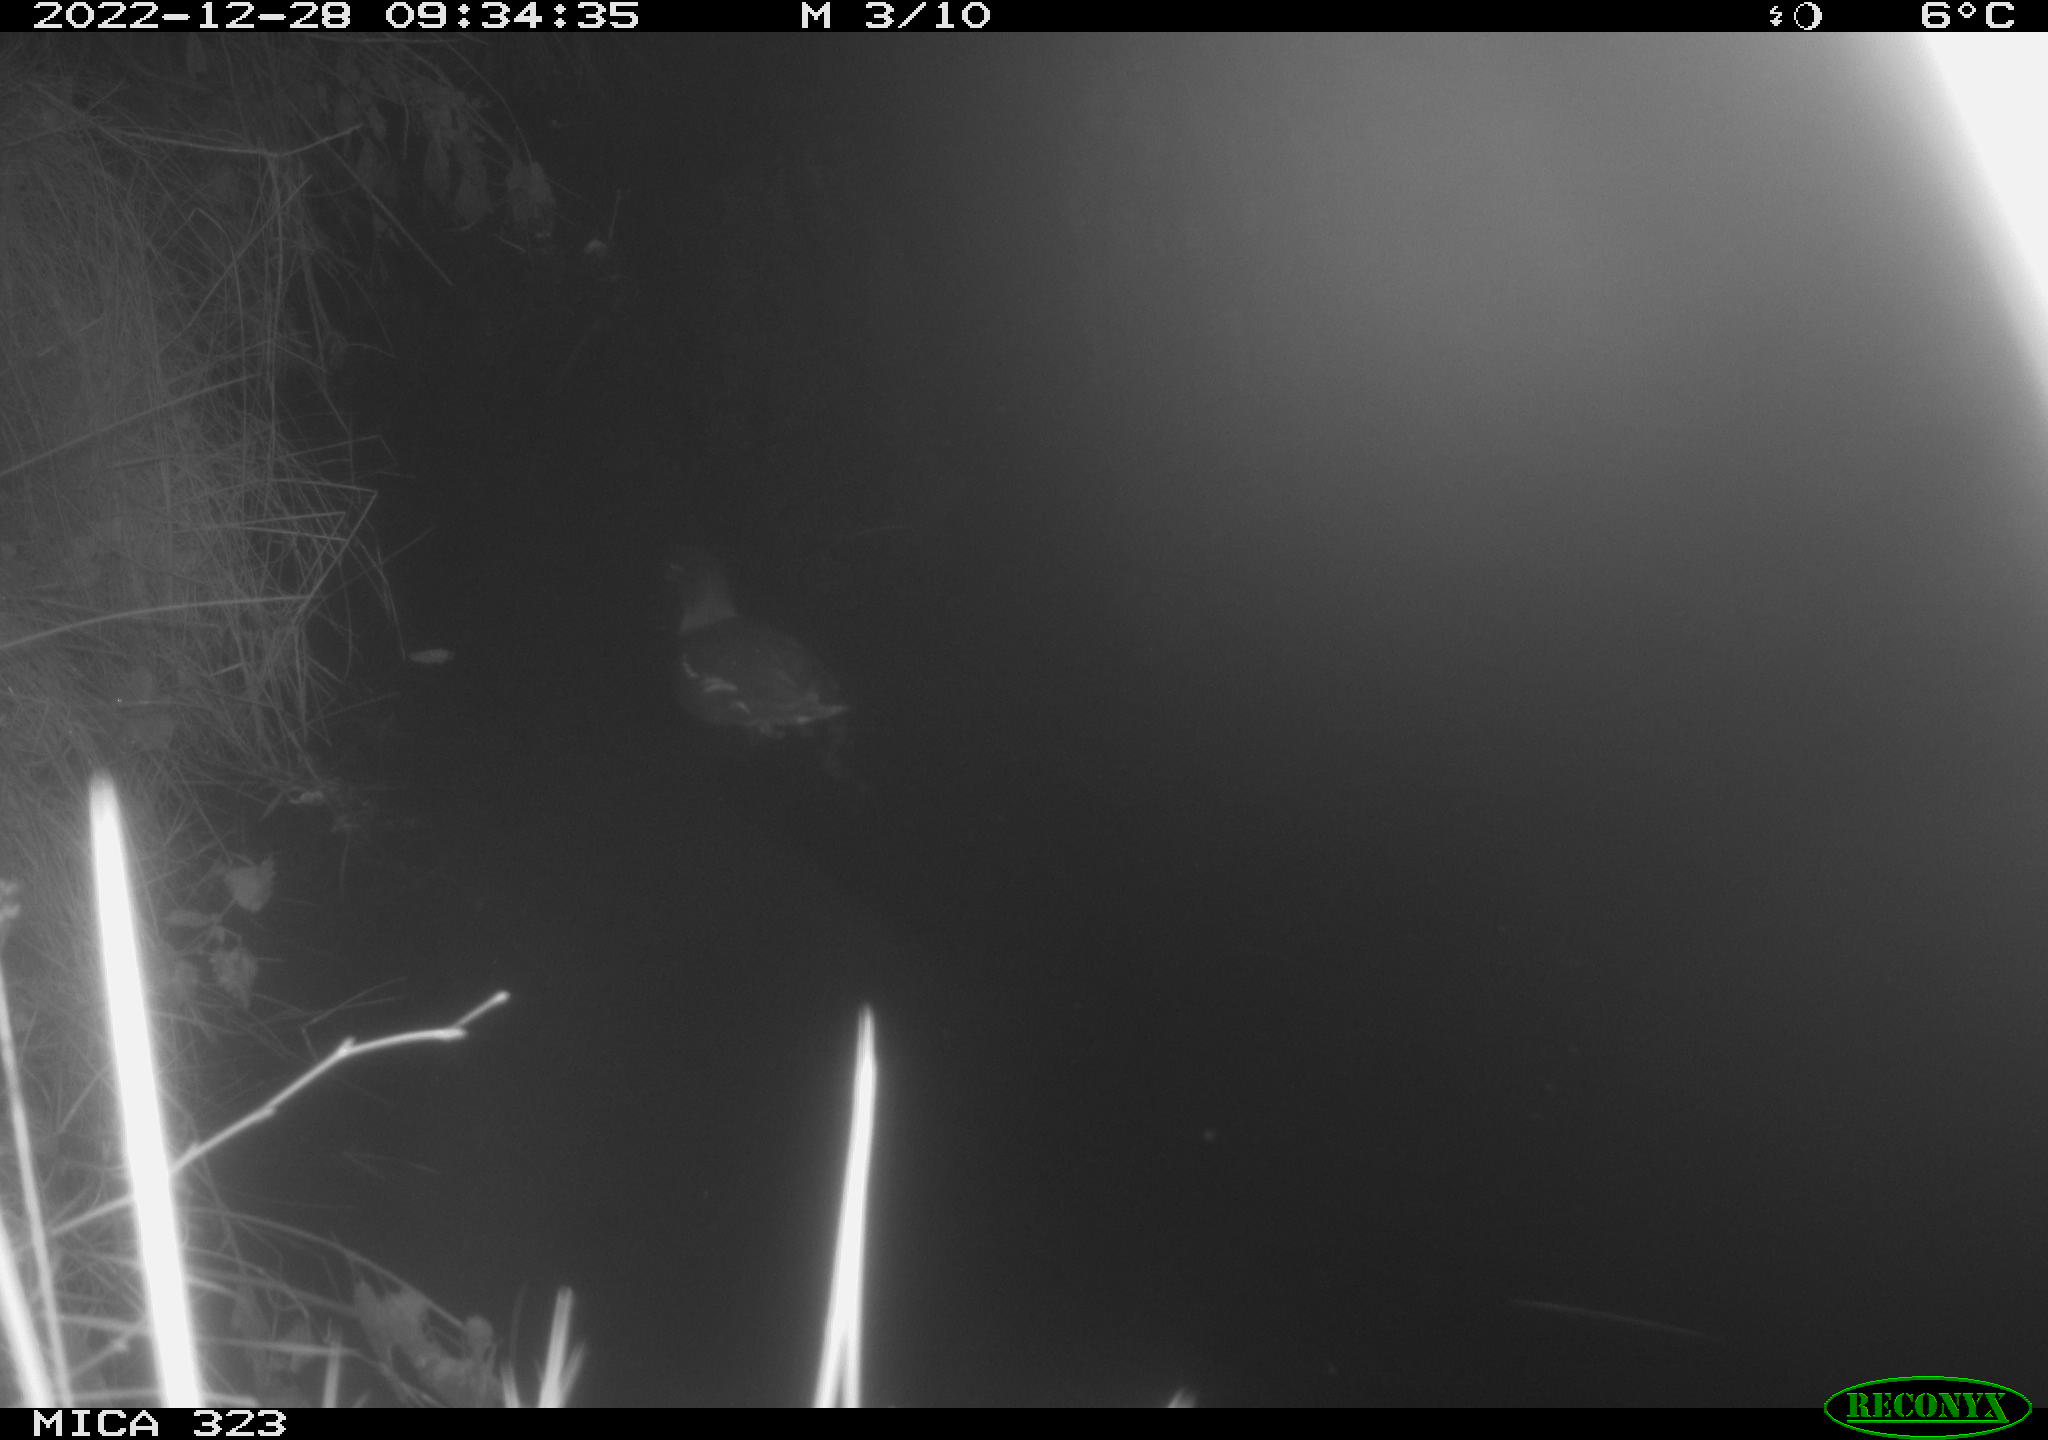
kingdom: Animalia
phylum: Chordata
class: Aves
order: Gruiformes
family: Rallidae
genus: Gallinula
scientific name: Gallinula chloropus
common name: Common moorhen
